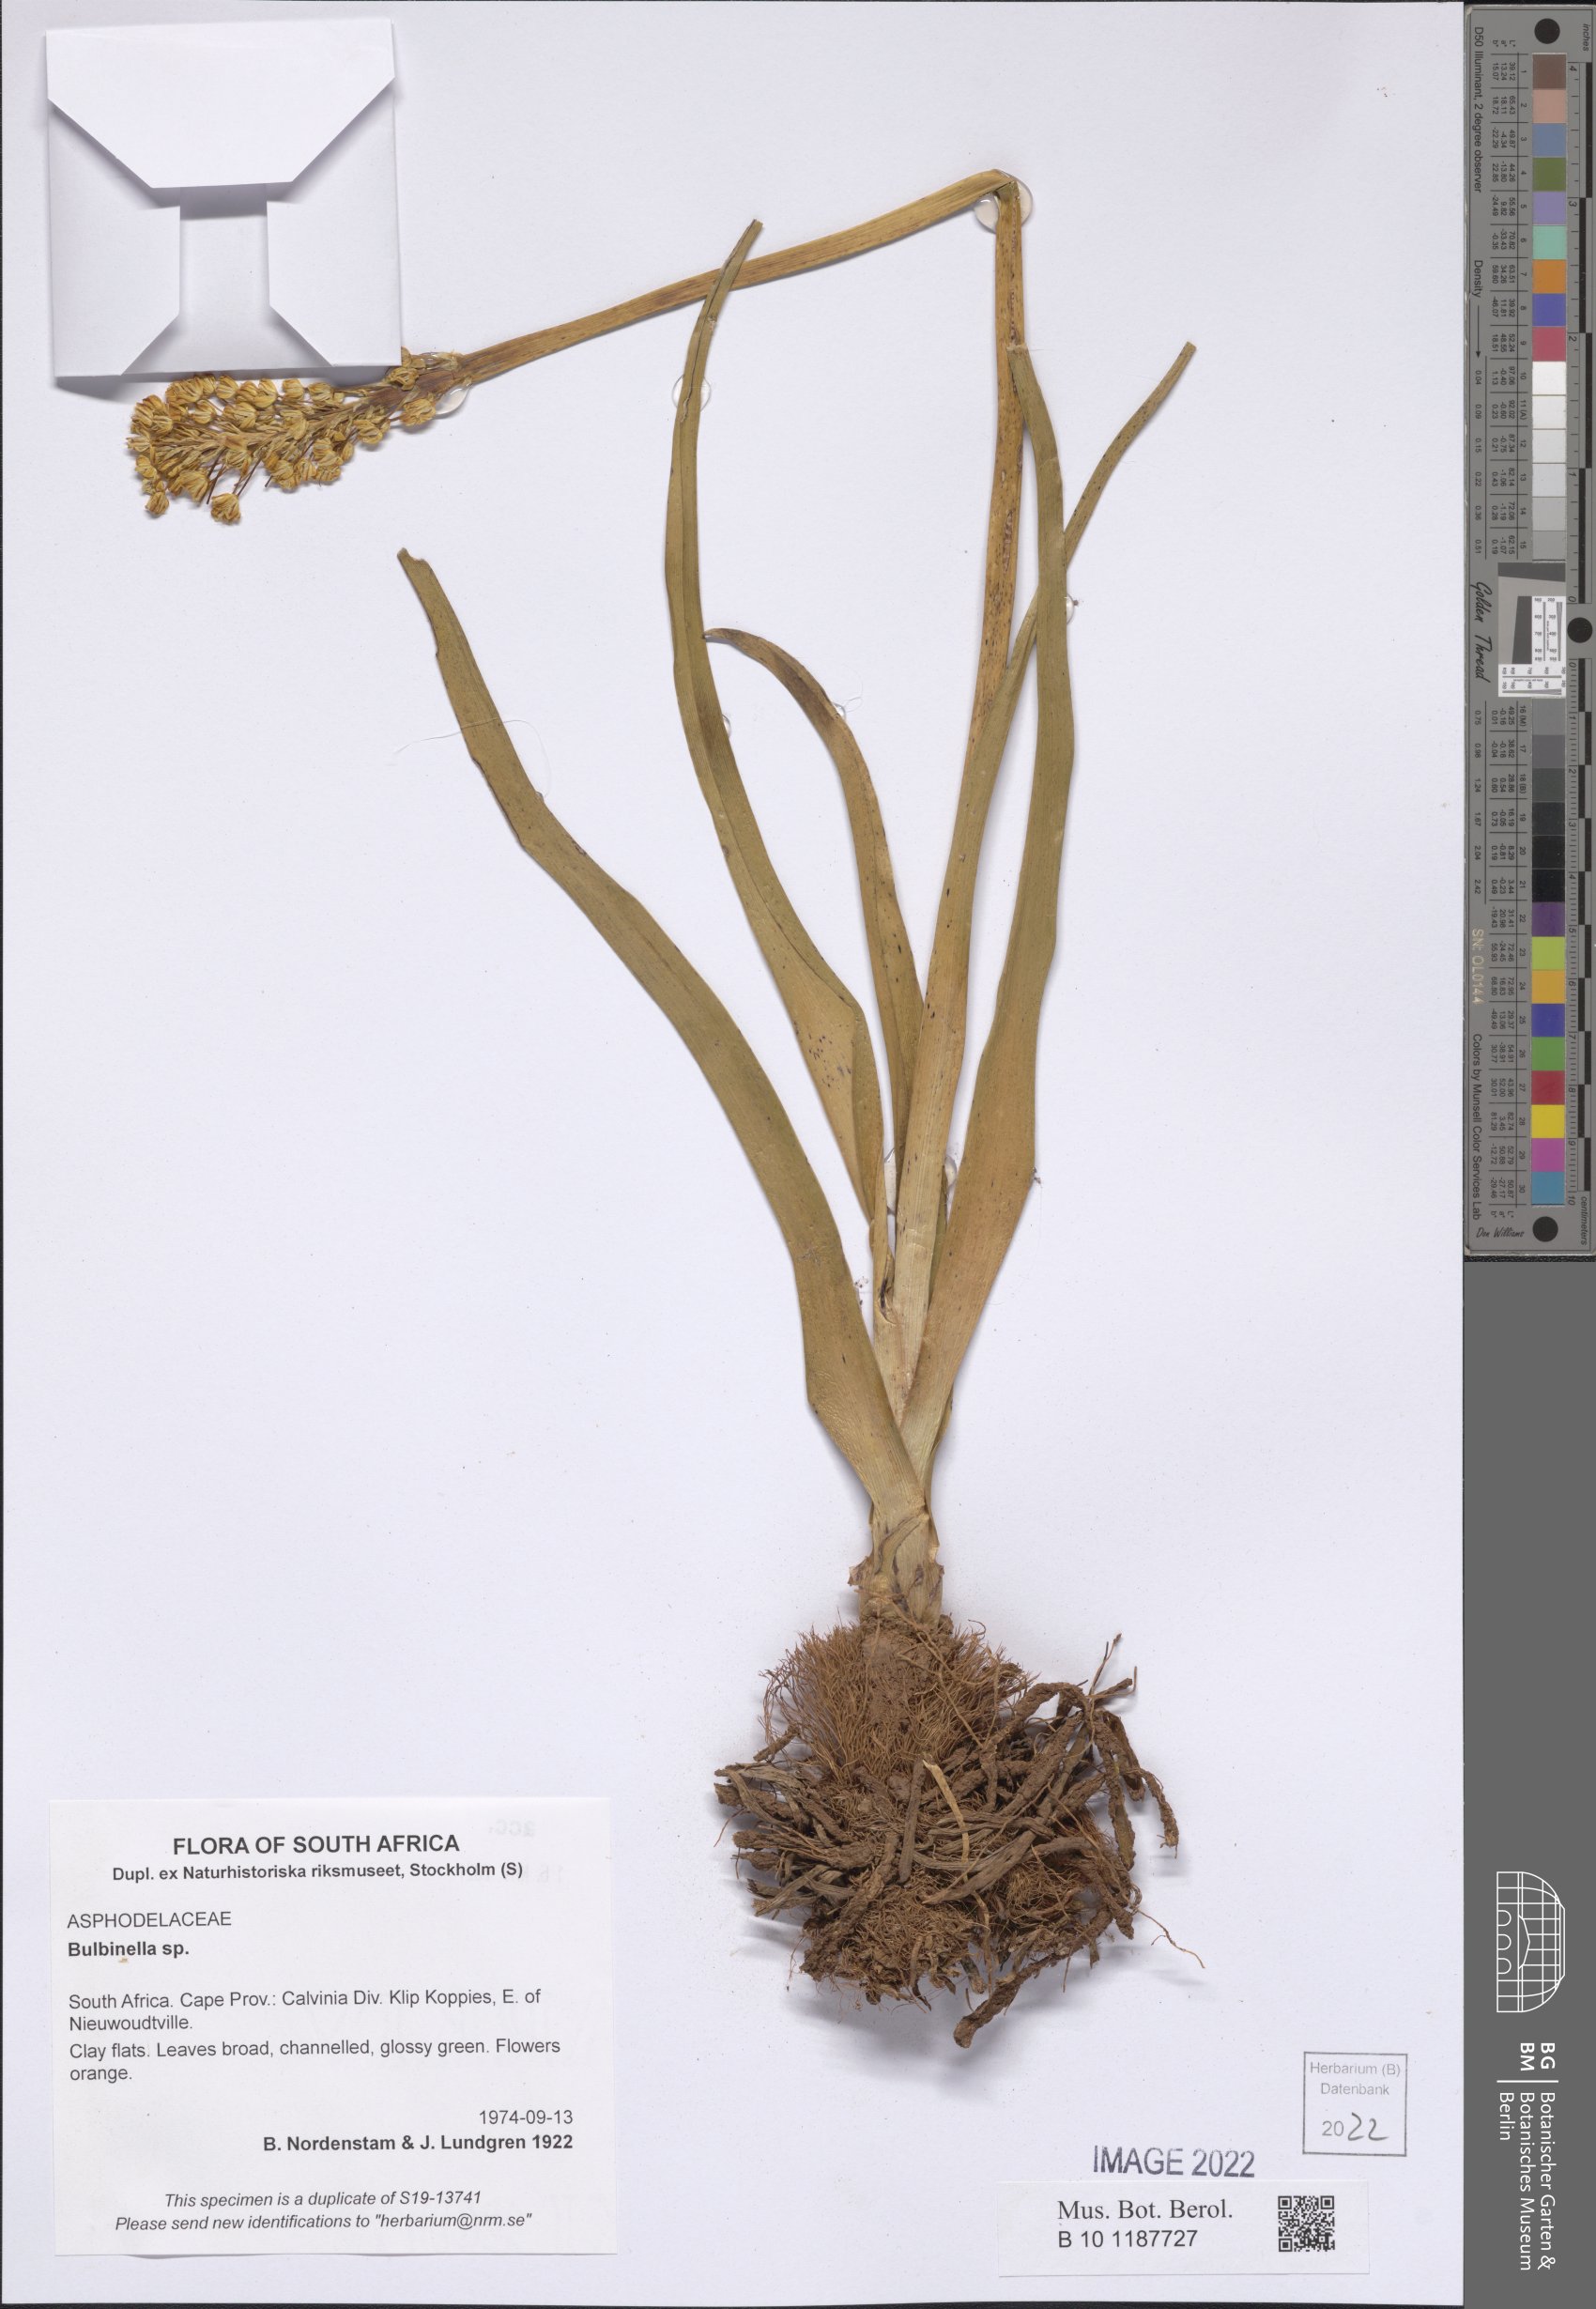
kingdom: Plantae
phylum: Tracheophyta
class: Liliopsida
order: Asparagales
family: Asphodelaceae
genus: Bulbinella
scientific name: Bulbinella
